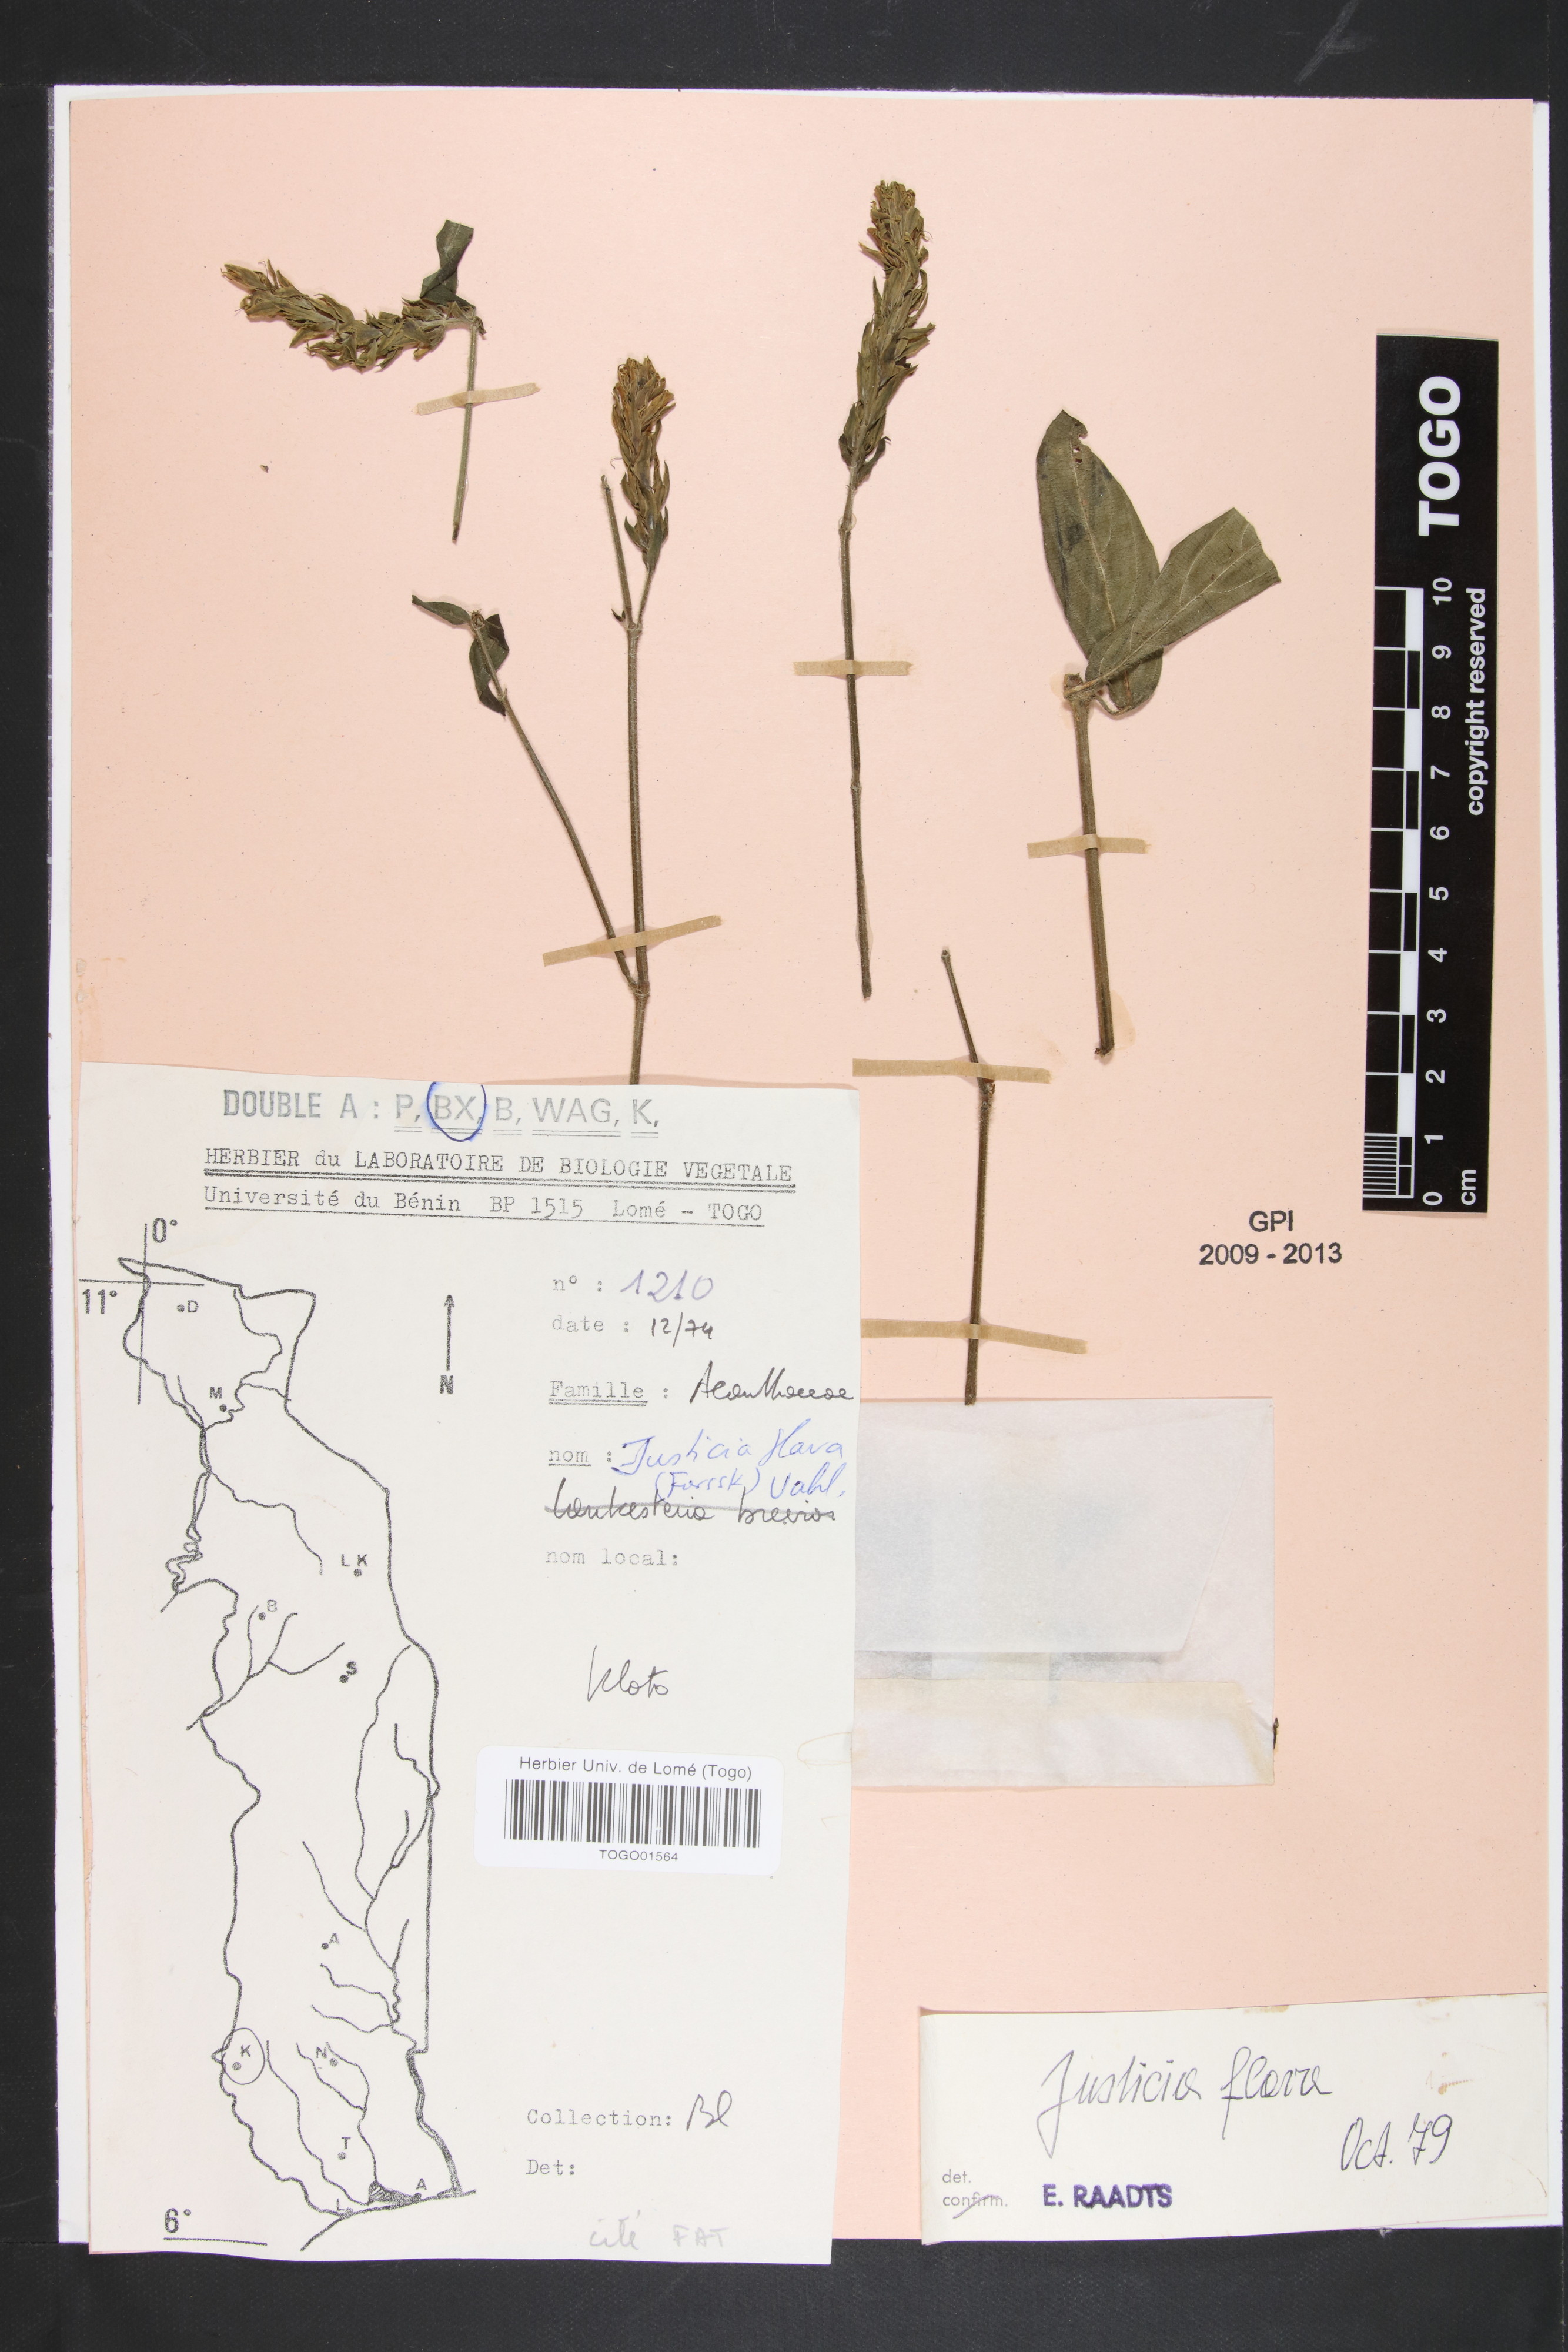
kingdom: Plantae
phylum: Tracheophyta
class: Magnoliopsida
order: Lamiales
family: Acanthaceae
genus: Justicia
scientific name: Justicia flava
